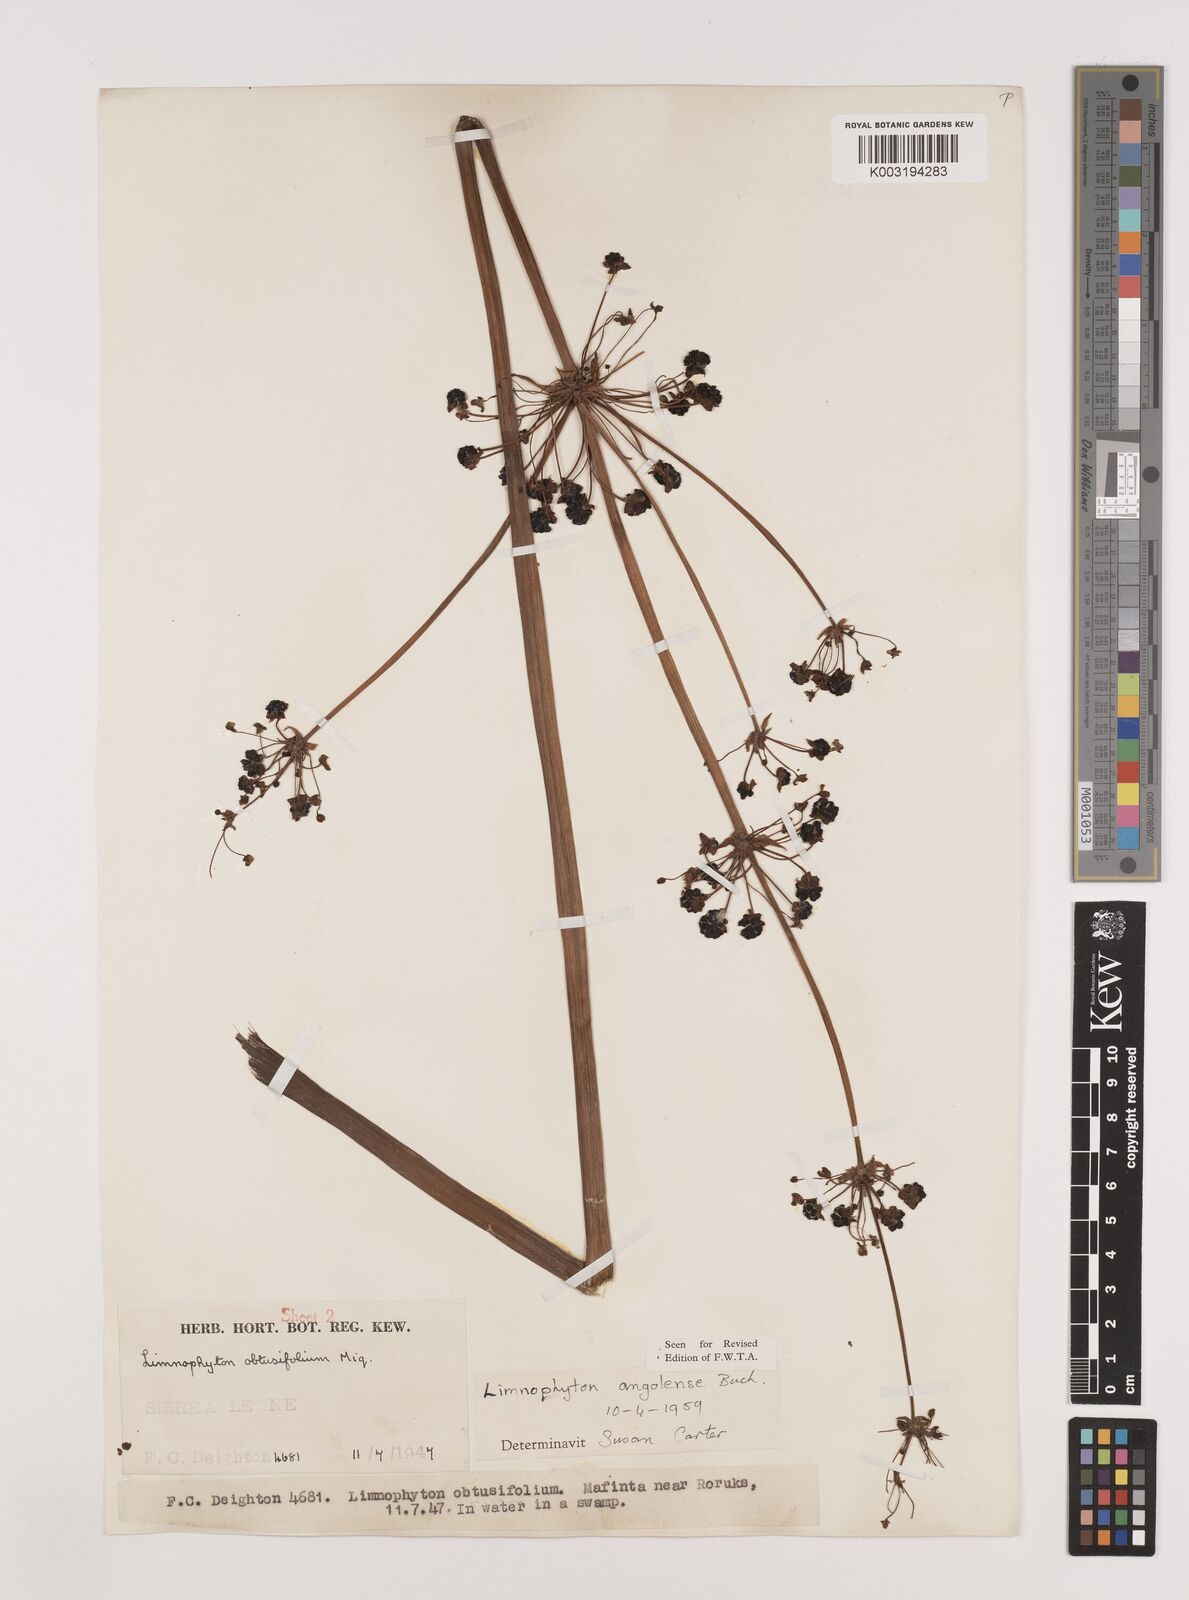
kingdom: Plantae
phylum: Tracheophyta
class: Liliopsida
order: Alismatales
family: Alismataceae
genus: Limnophyton
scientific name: Limnophyton angolense
